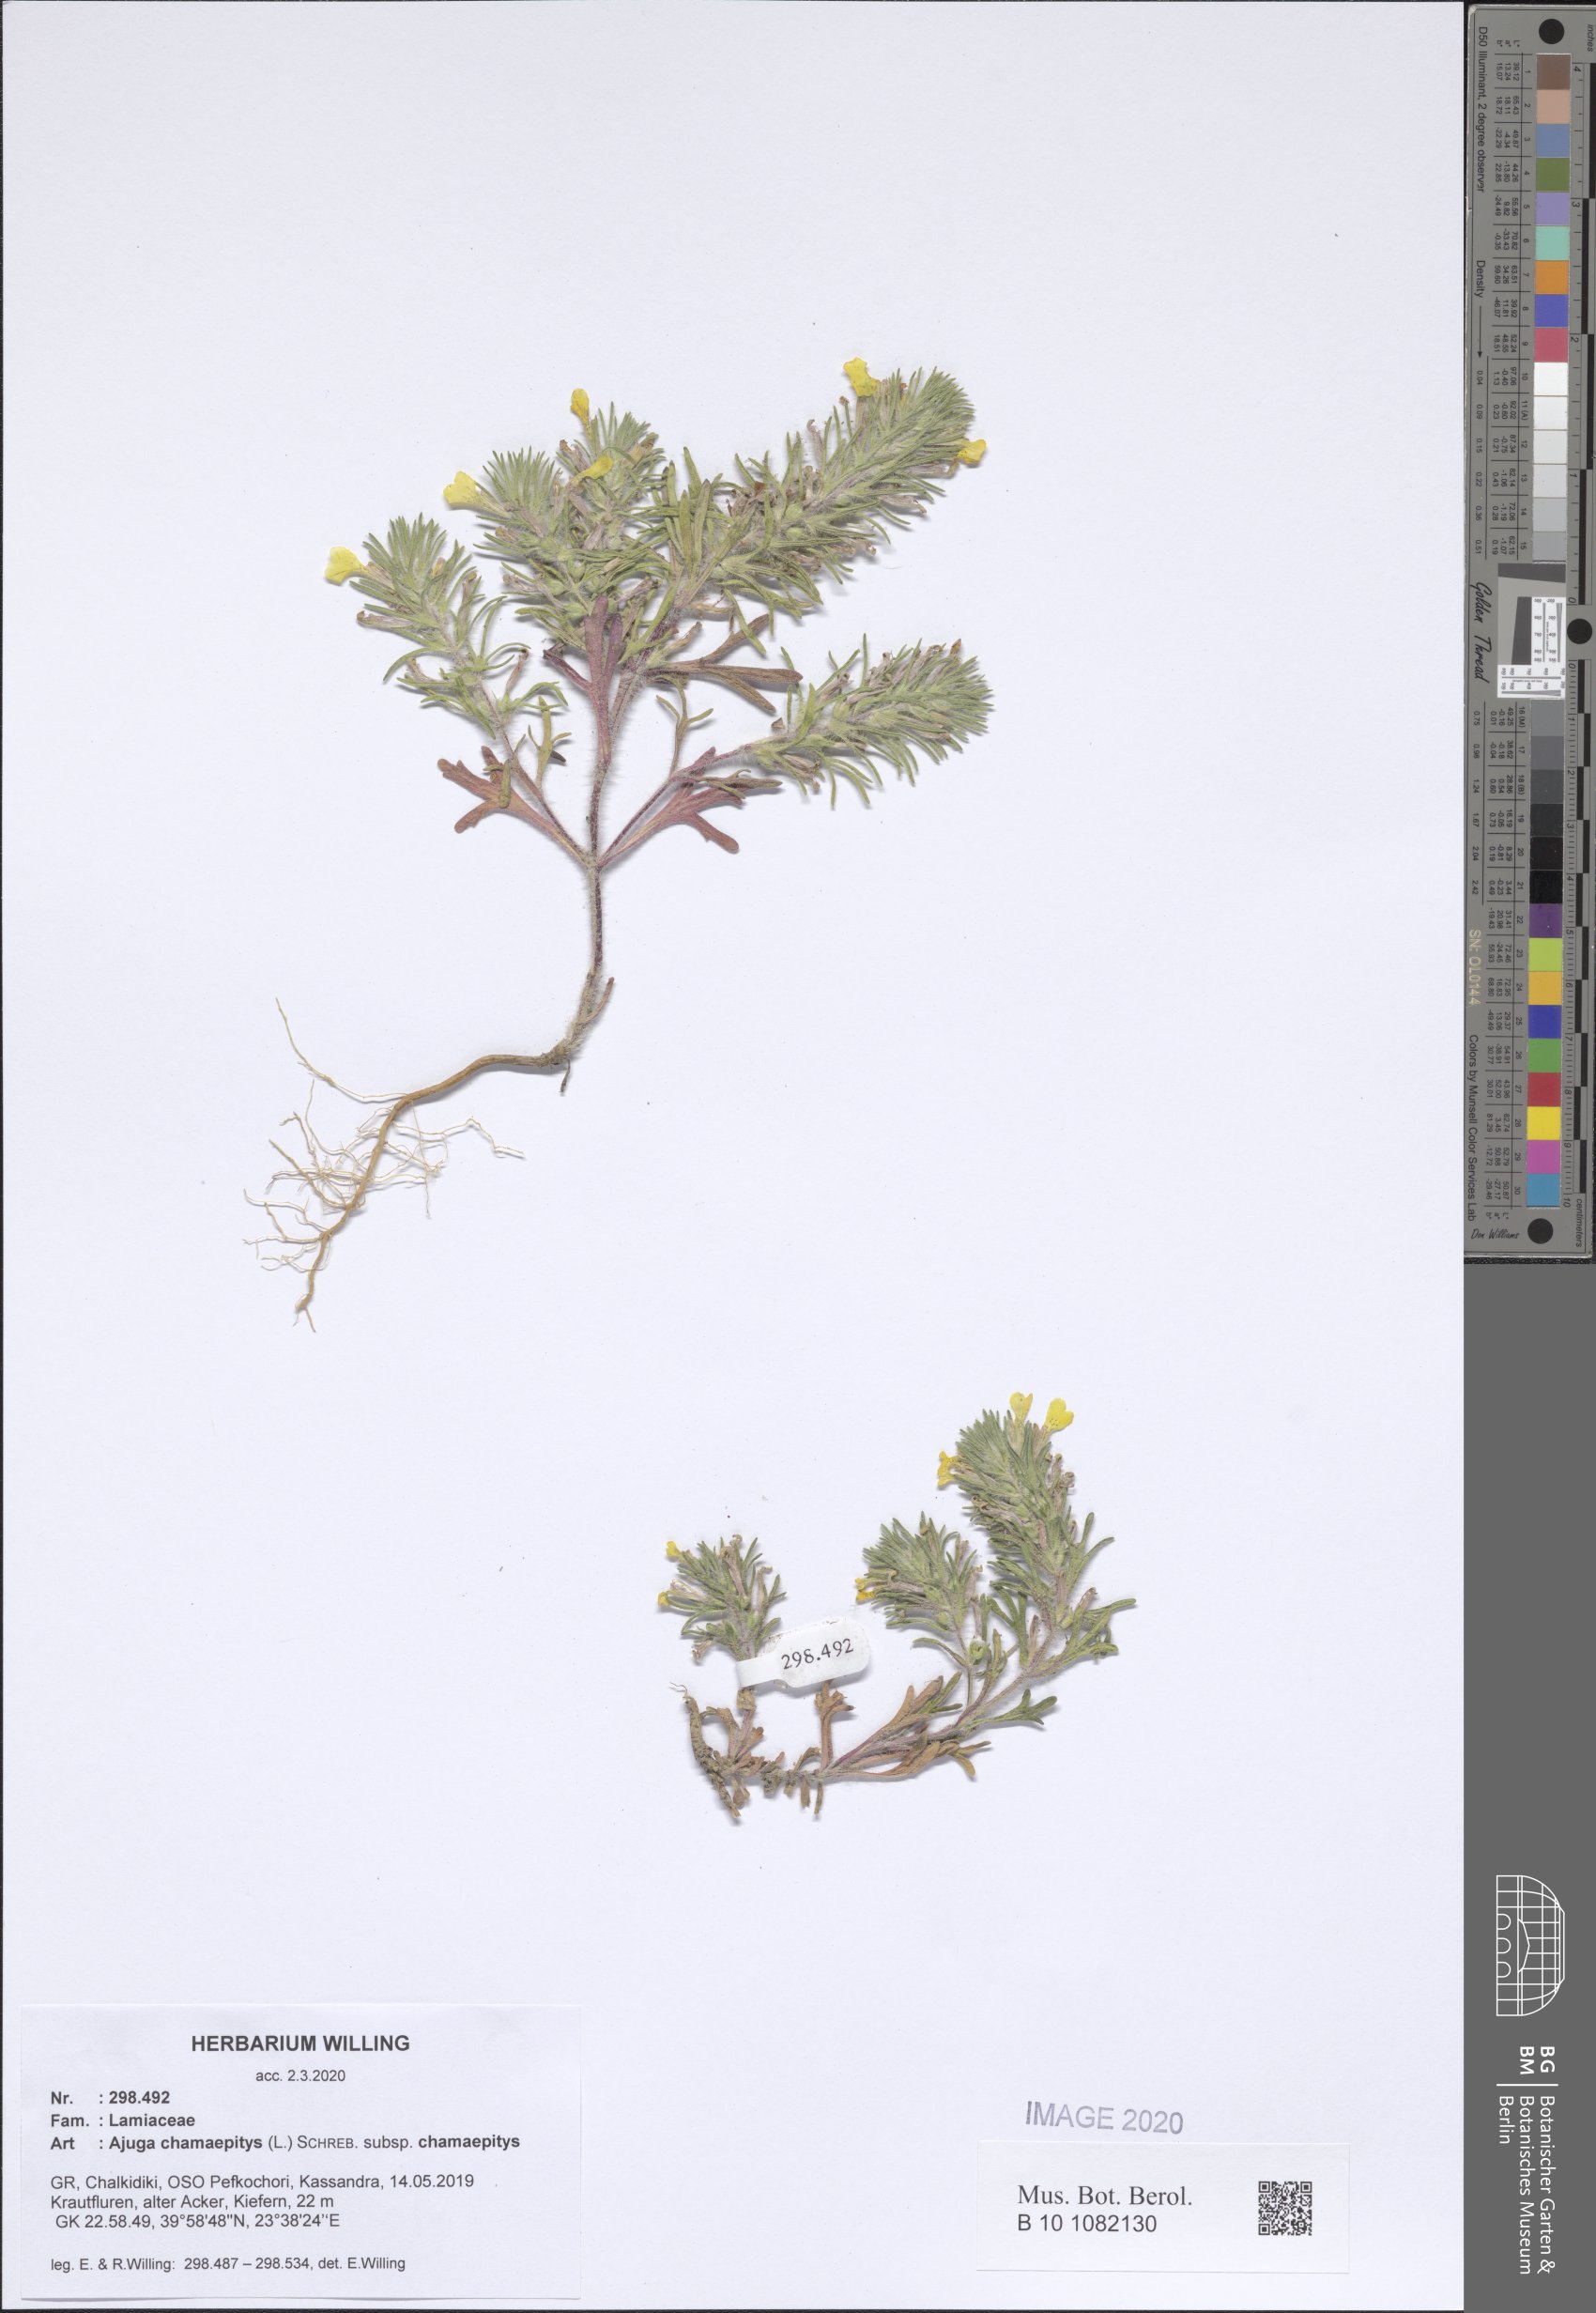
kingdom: Plantae
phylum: Tracheophyta
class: Magnoliopsida
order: Lamiales
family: Lamiaceae
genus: Ajuga
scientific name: Ajuga chamaepitys
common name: Ground-pine
